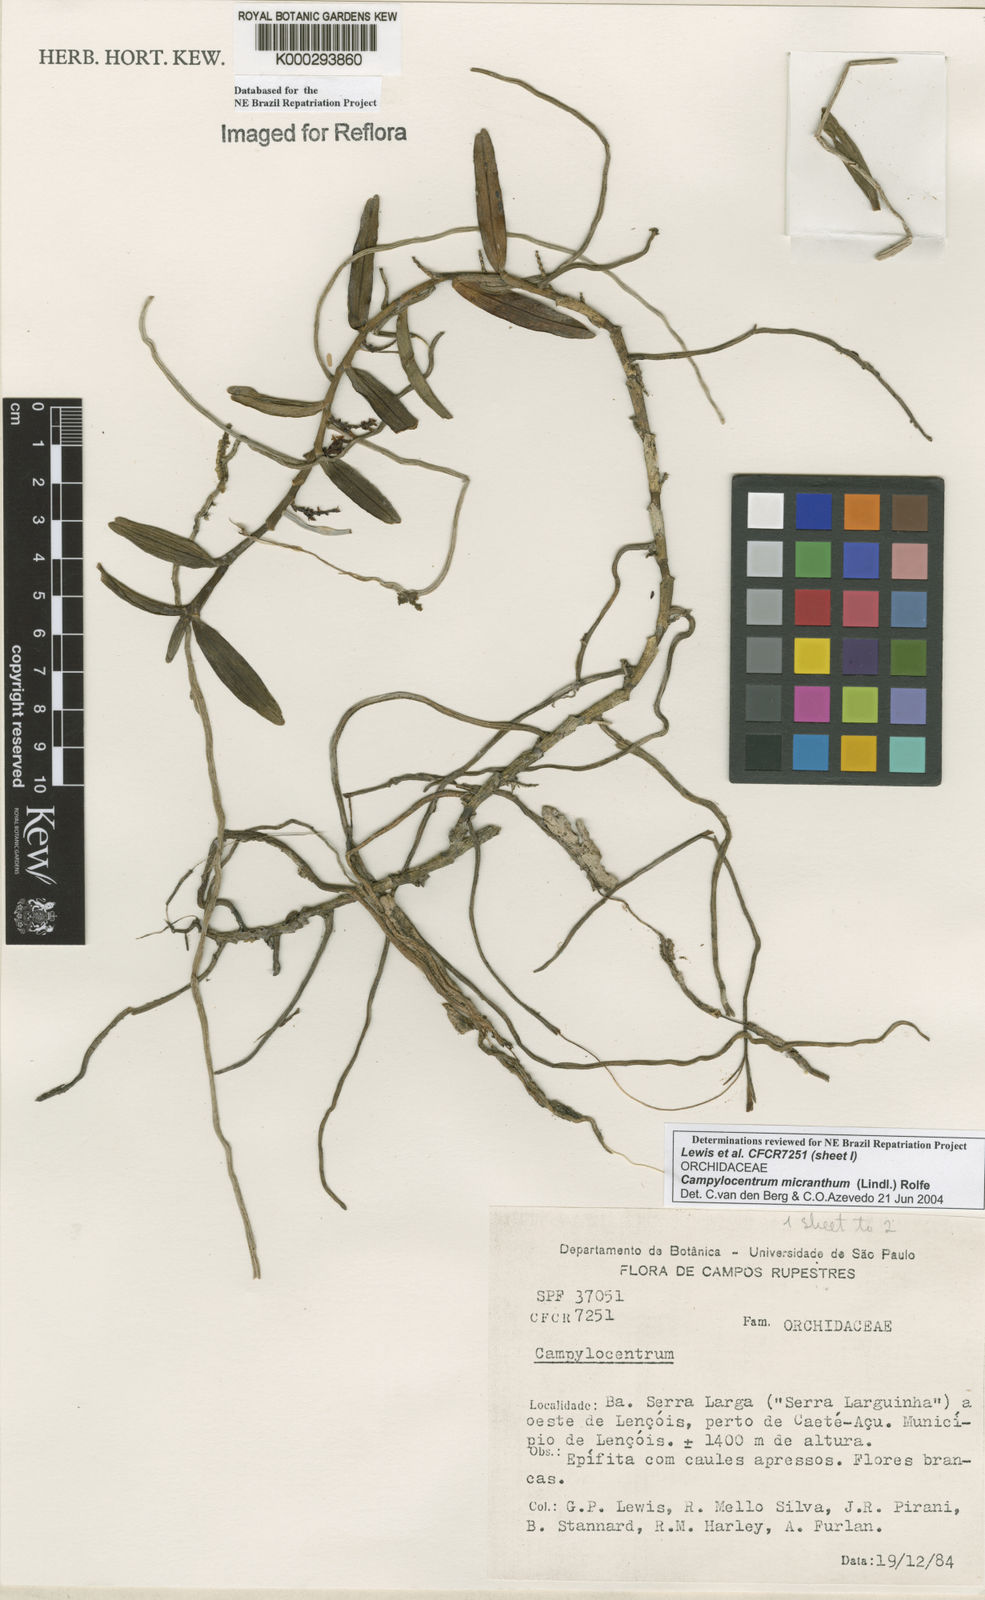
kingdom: Plantae
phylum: Tracheophyta
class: Liliopsida
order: Asparagales
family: Orchidaceae
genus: Campylocentrum
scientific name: Campylocentrum micranthum
